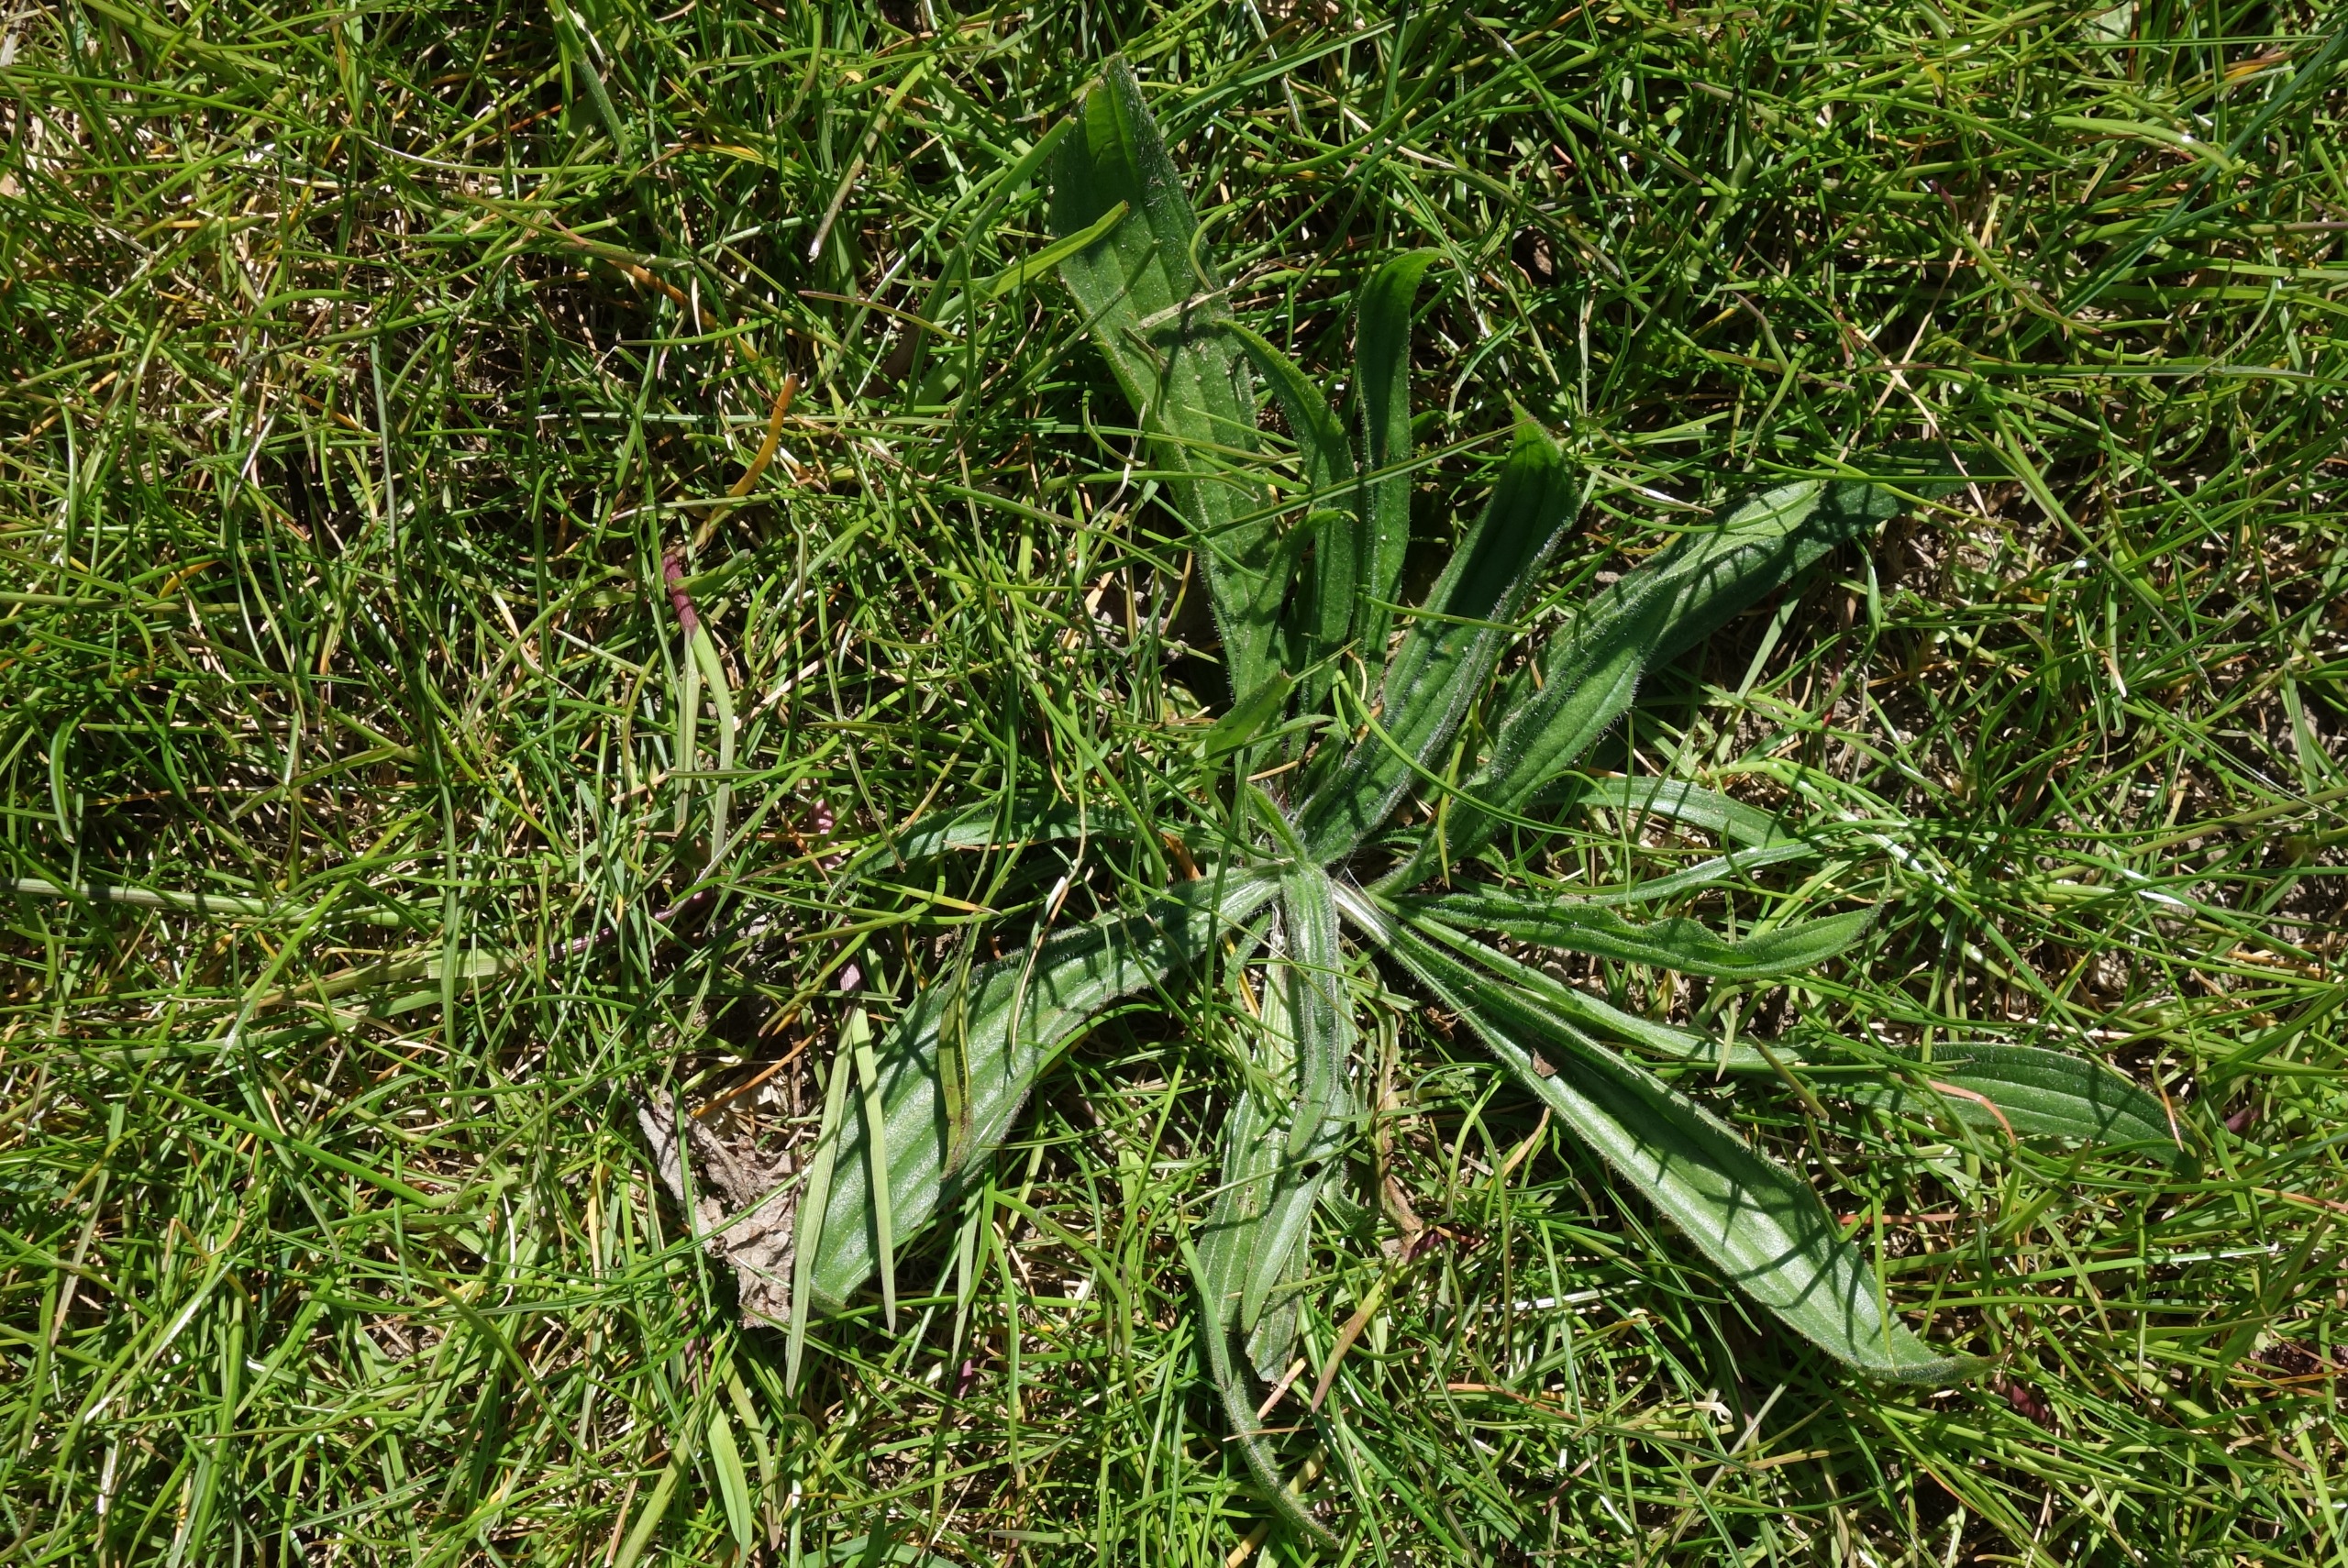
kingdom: Plantae
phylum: Tracheophyta
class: Magnoliopsida
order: Lamiales
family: Plantaginaceae
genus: Plantago
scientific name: Plantago lanceolata
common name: Lancet-vejbred
